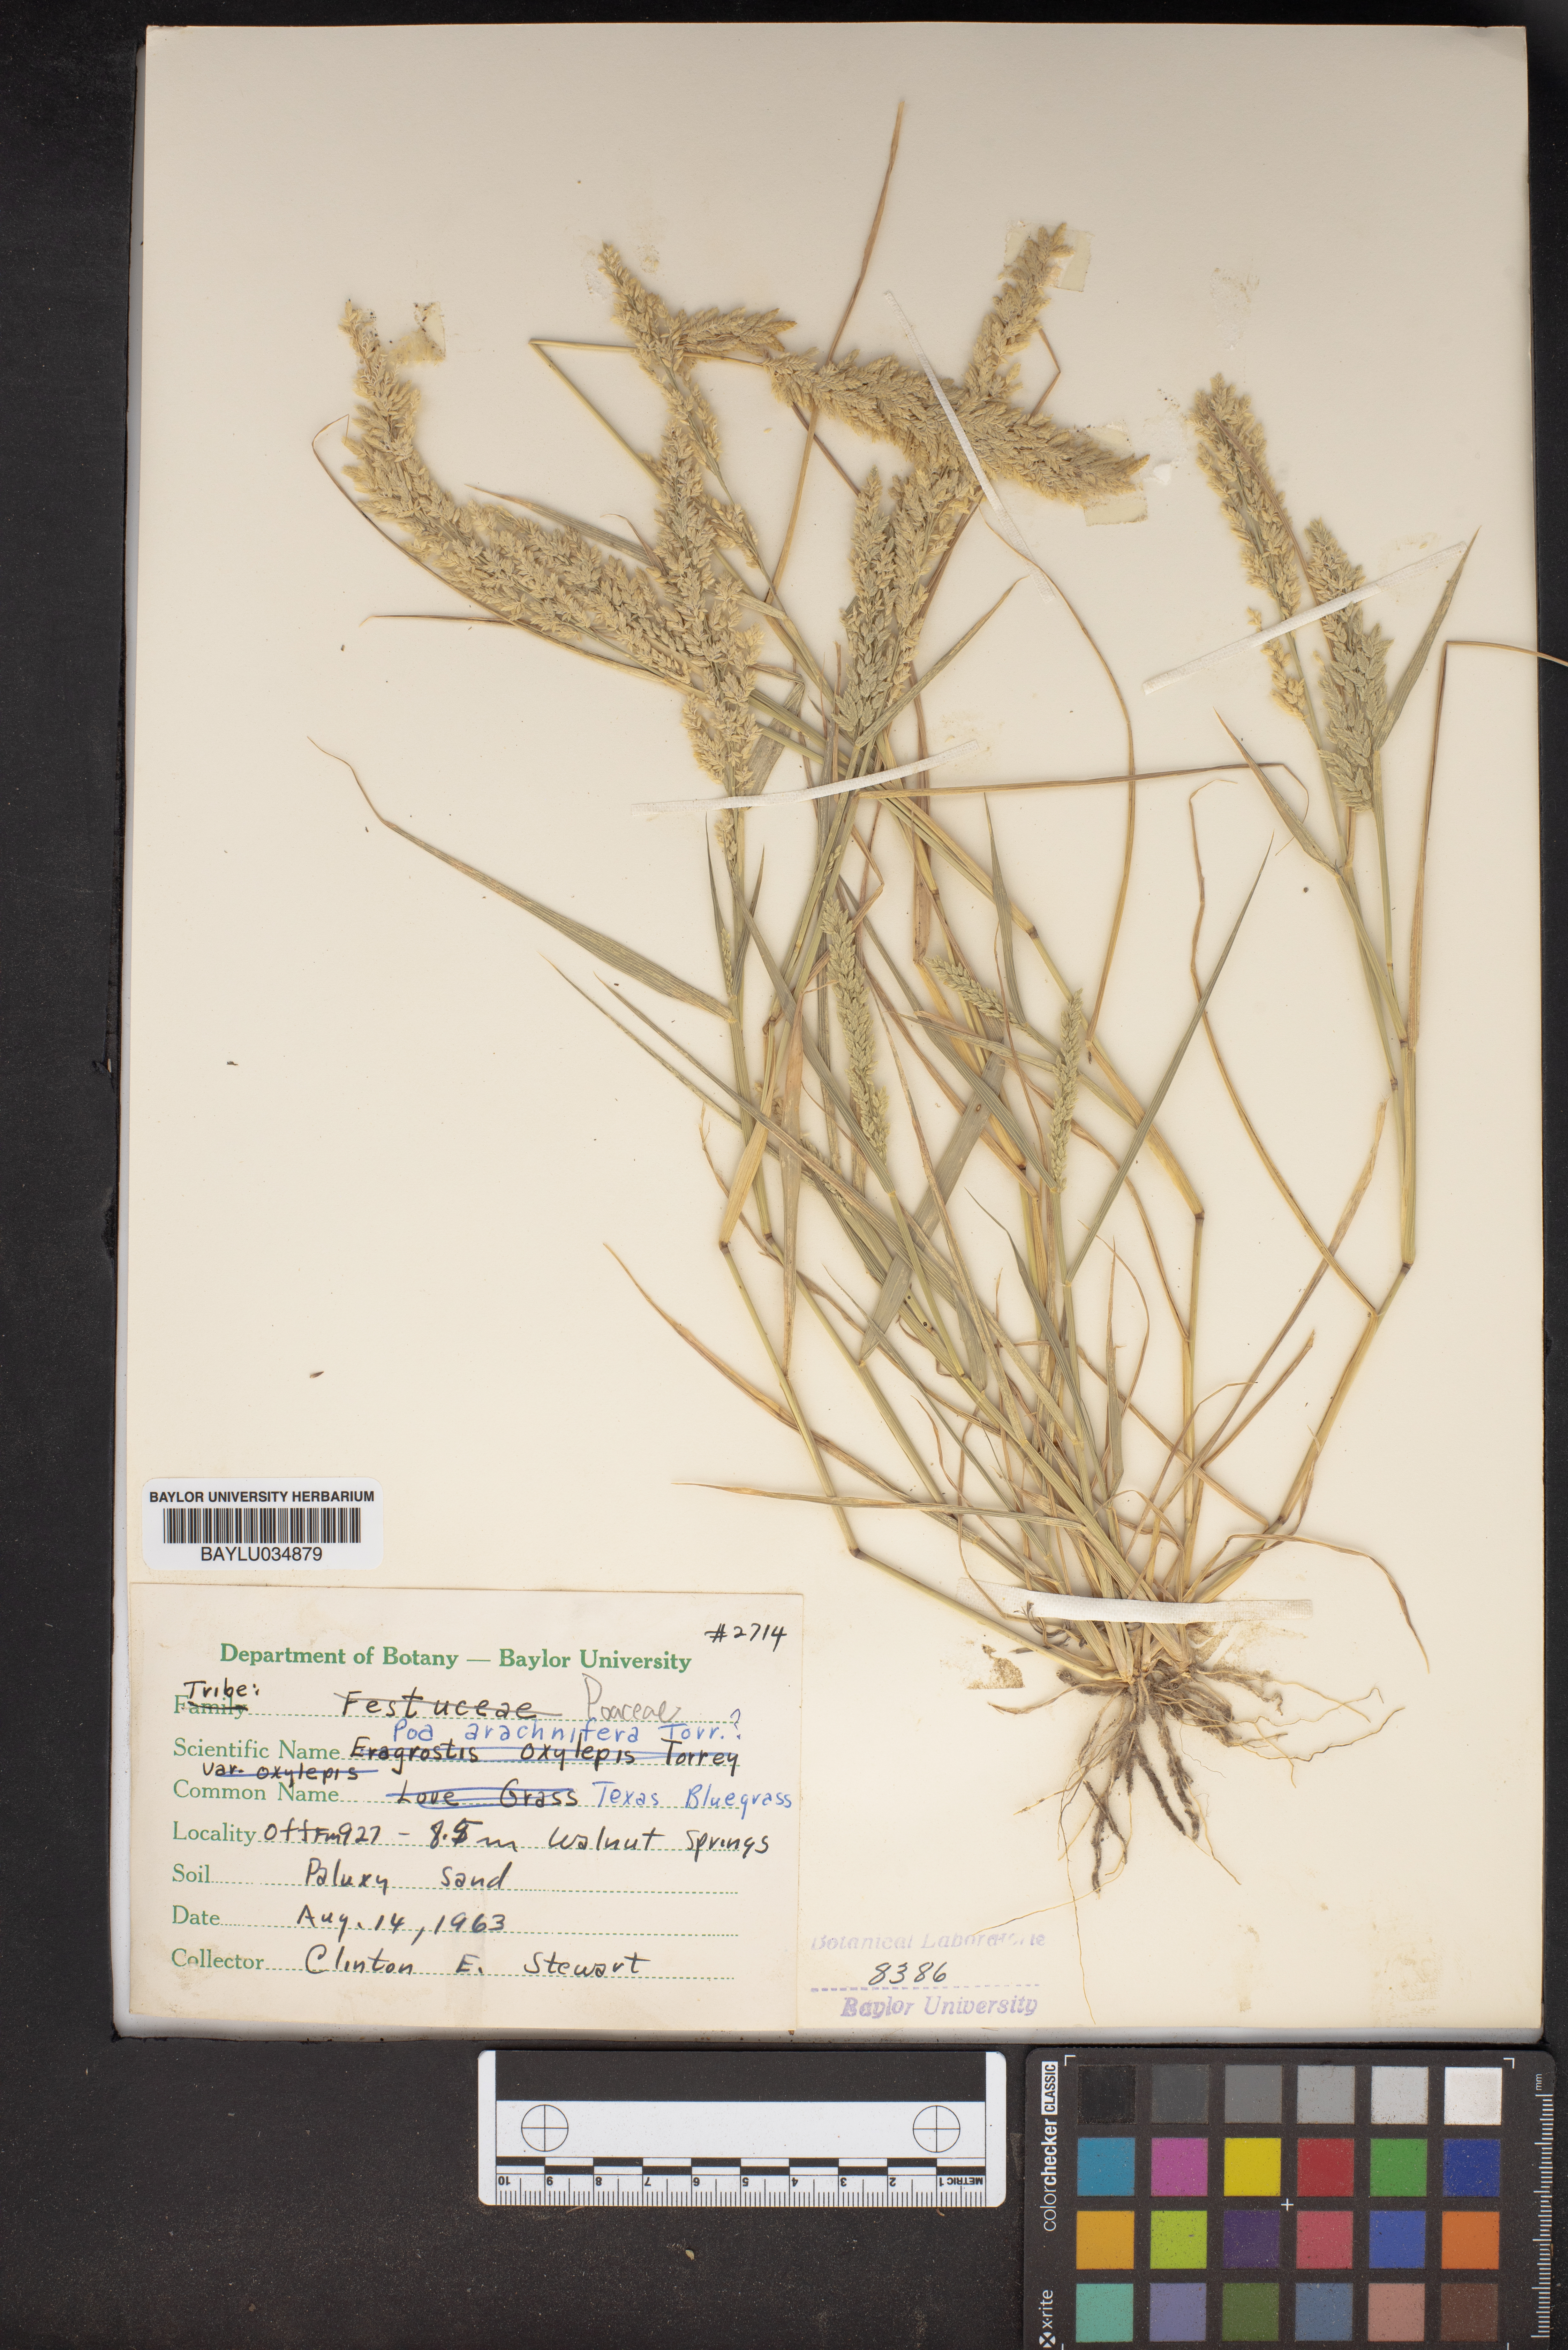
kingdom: Plantae
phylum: Tracheophyta
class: Liliopsida
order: Poales
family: Poaceae
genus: Poa
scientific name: Poa arachnifera
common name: Texas bluegrass
